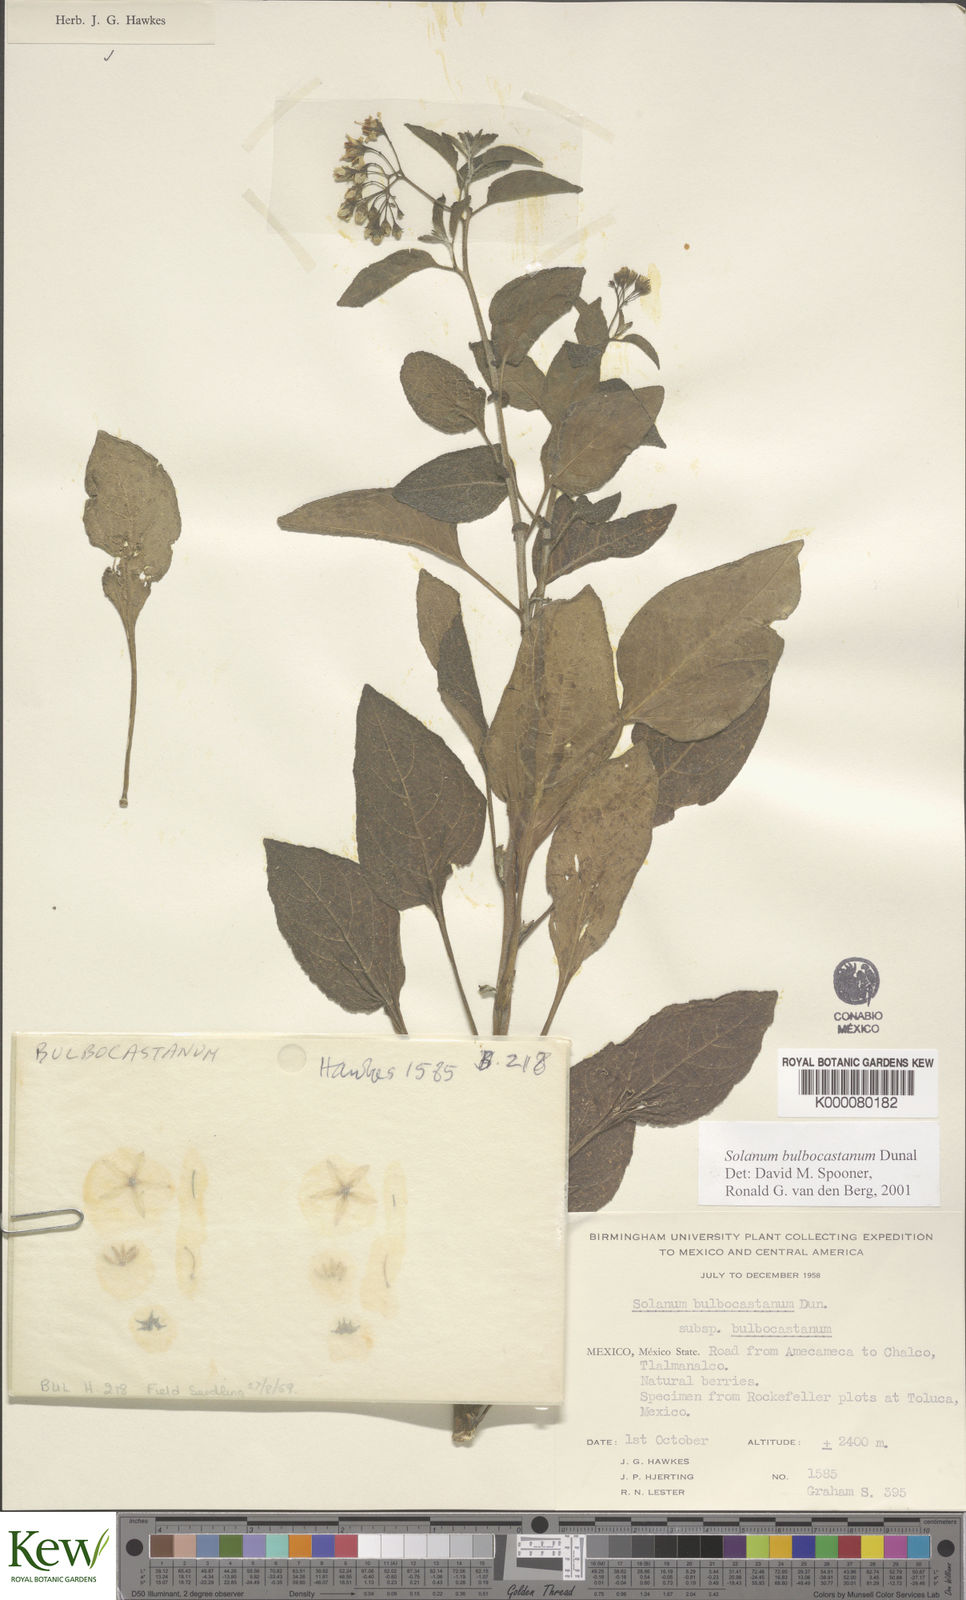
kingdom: Plantae
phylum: Tracheophyta
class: Magnoliopsida
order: Solanales
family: Solanaceae
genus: Solanum
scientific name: Solanum bulbocastanum
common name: Ornamental nightshade
